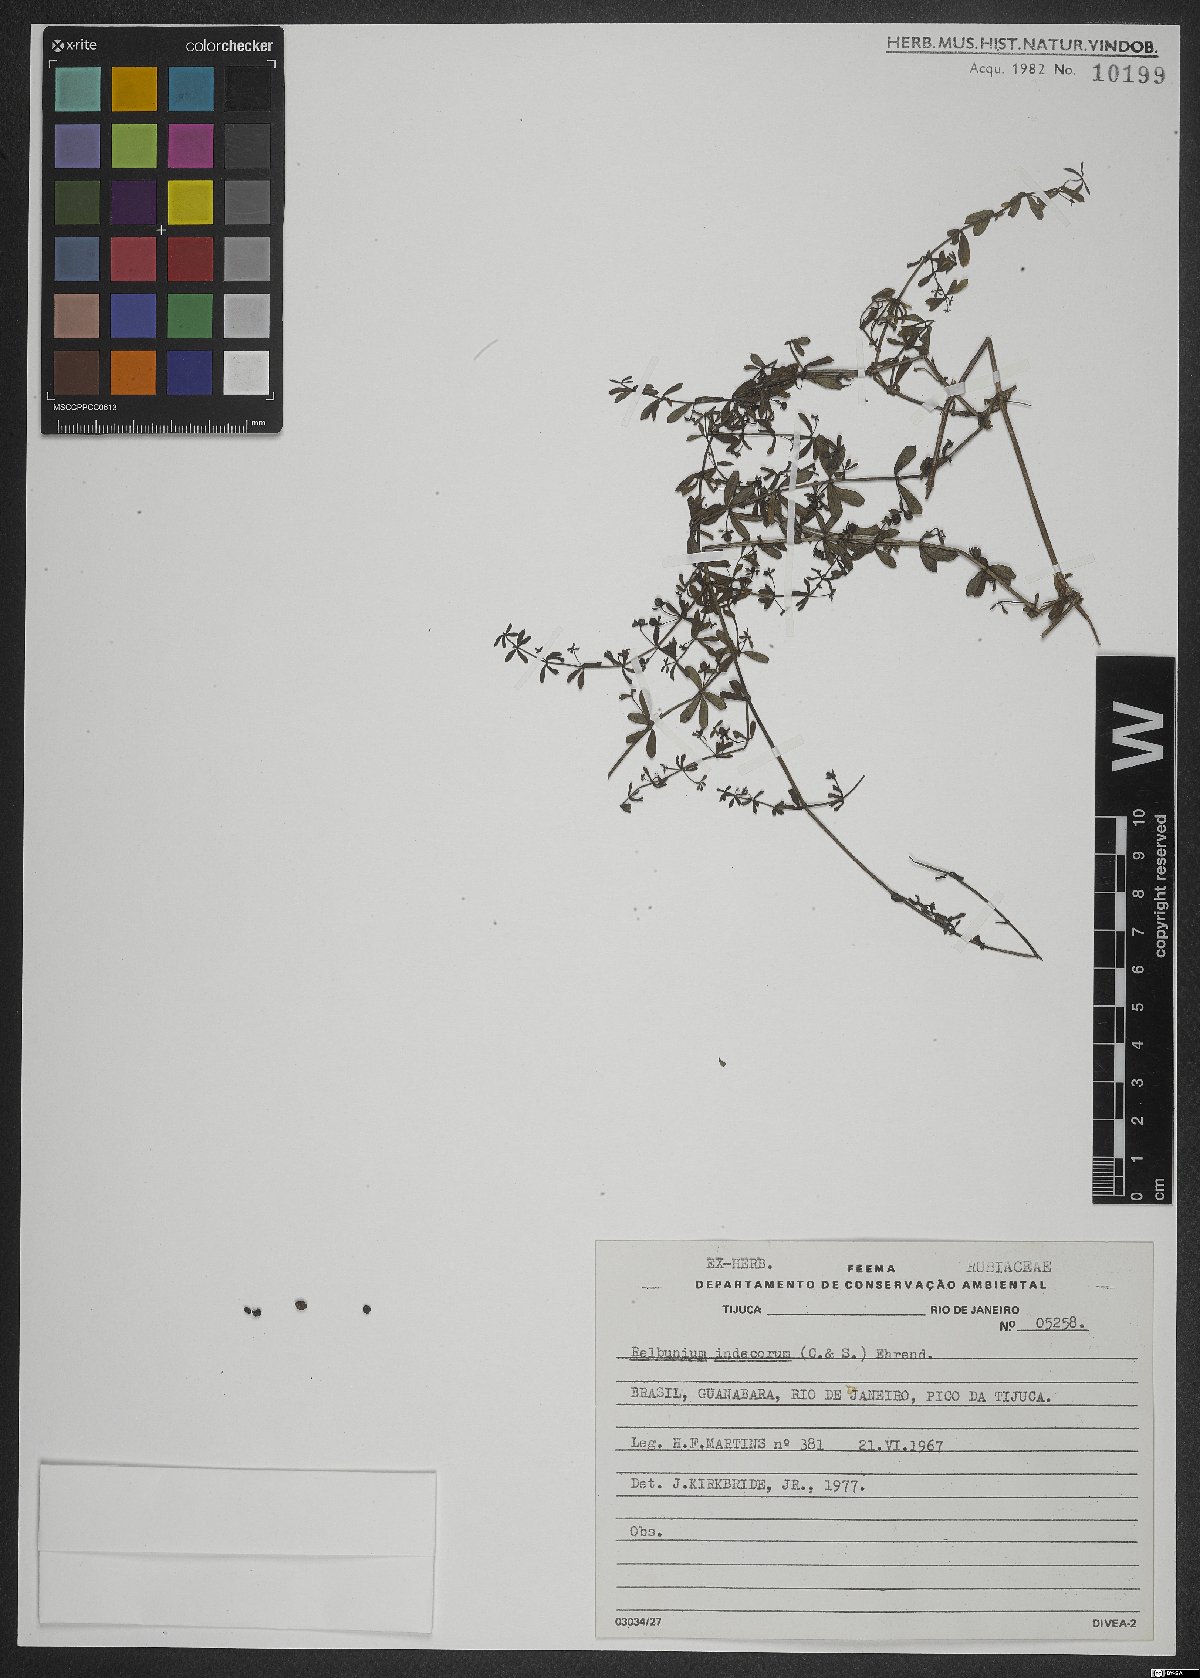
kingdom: Plantae
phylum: Tracheophyta
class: Magnoliopsida
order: Gentianales
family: Rubiaceae
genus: Galium
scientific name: Galium hypocarpium
